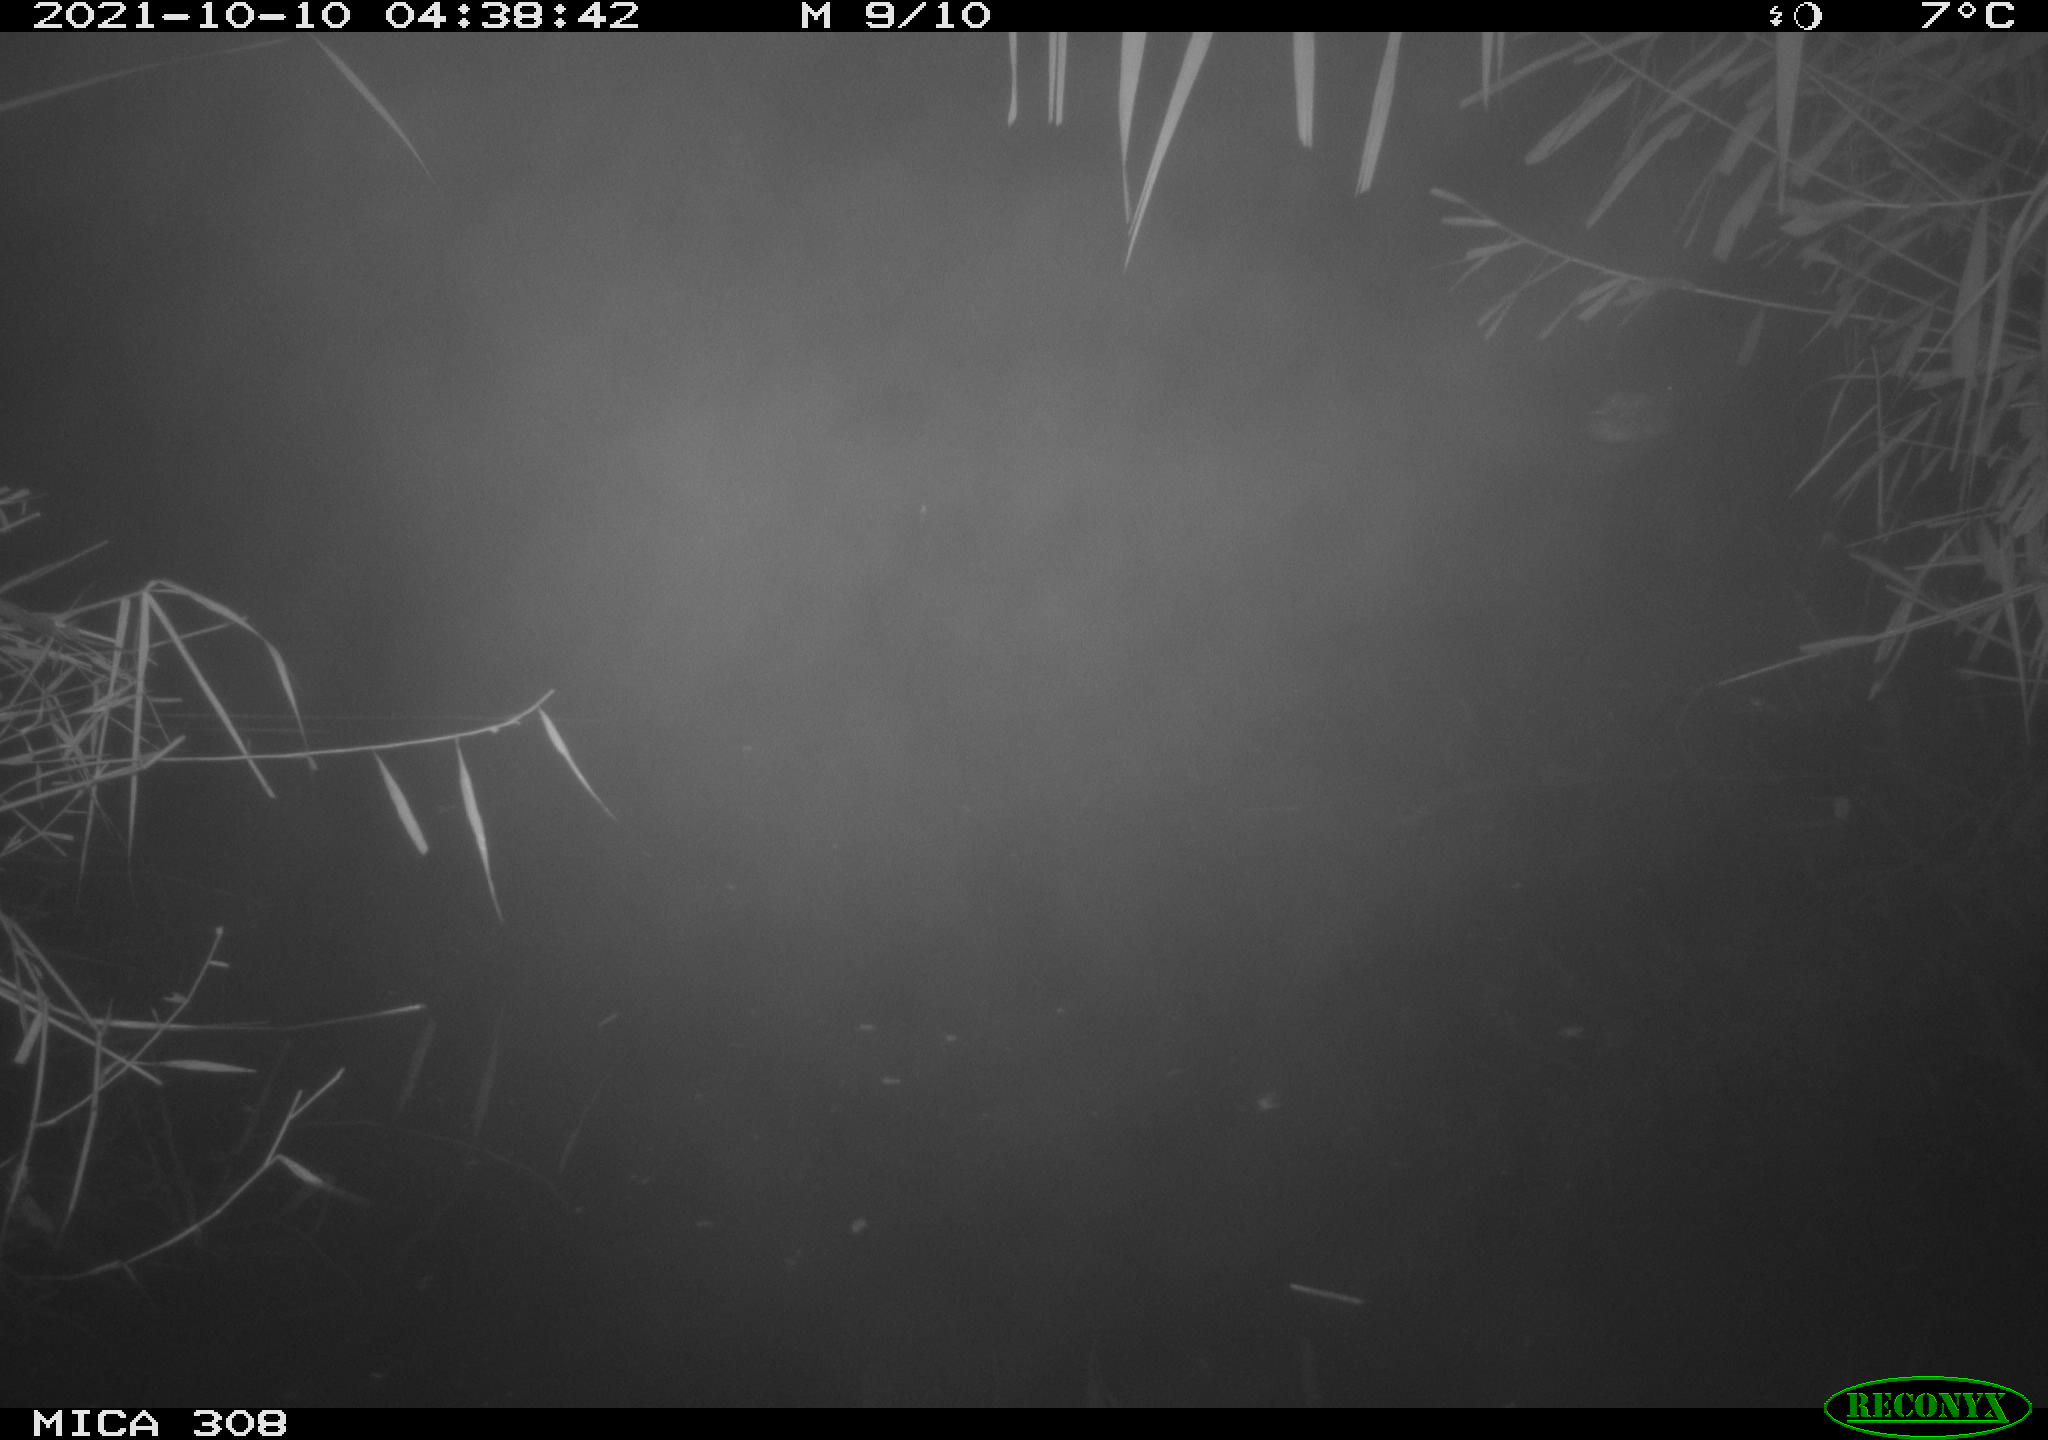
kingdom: Animalia
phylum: Chordata
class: Aves
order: Anseriformes
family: Anatidae
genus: Spatula
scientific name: Spatula clypeata
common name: Northern shoveler
